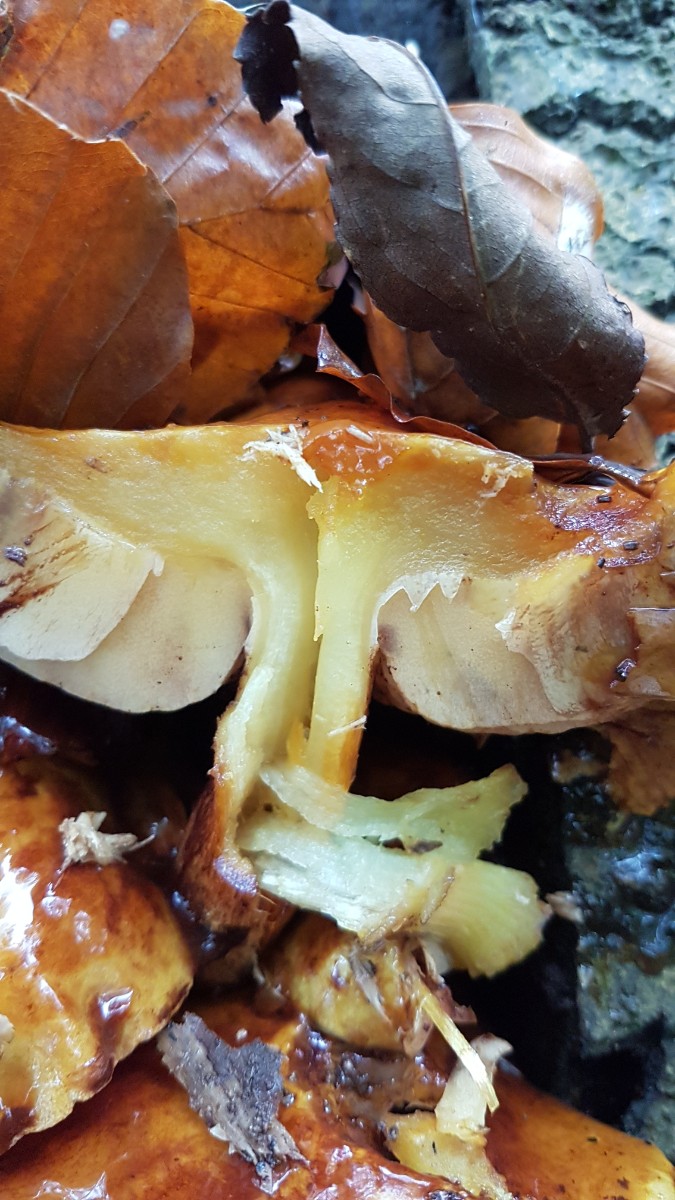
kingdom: Fungi
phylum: Basidiomycota
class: Agaricomycetes
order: Agaricales
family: Strophariaceae
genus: Pholiota
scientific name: Pholiota adiposa
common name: højtsiddende skælhat
